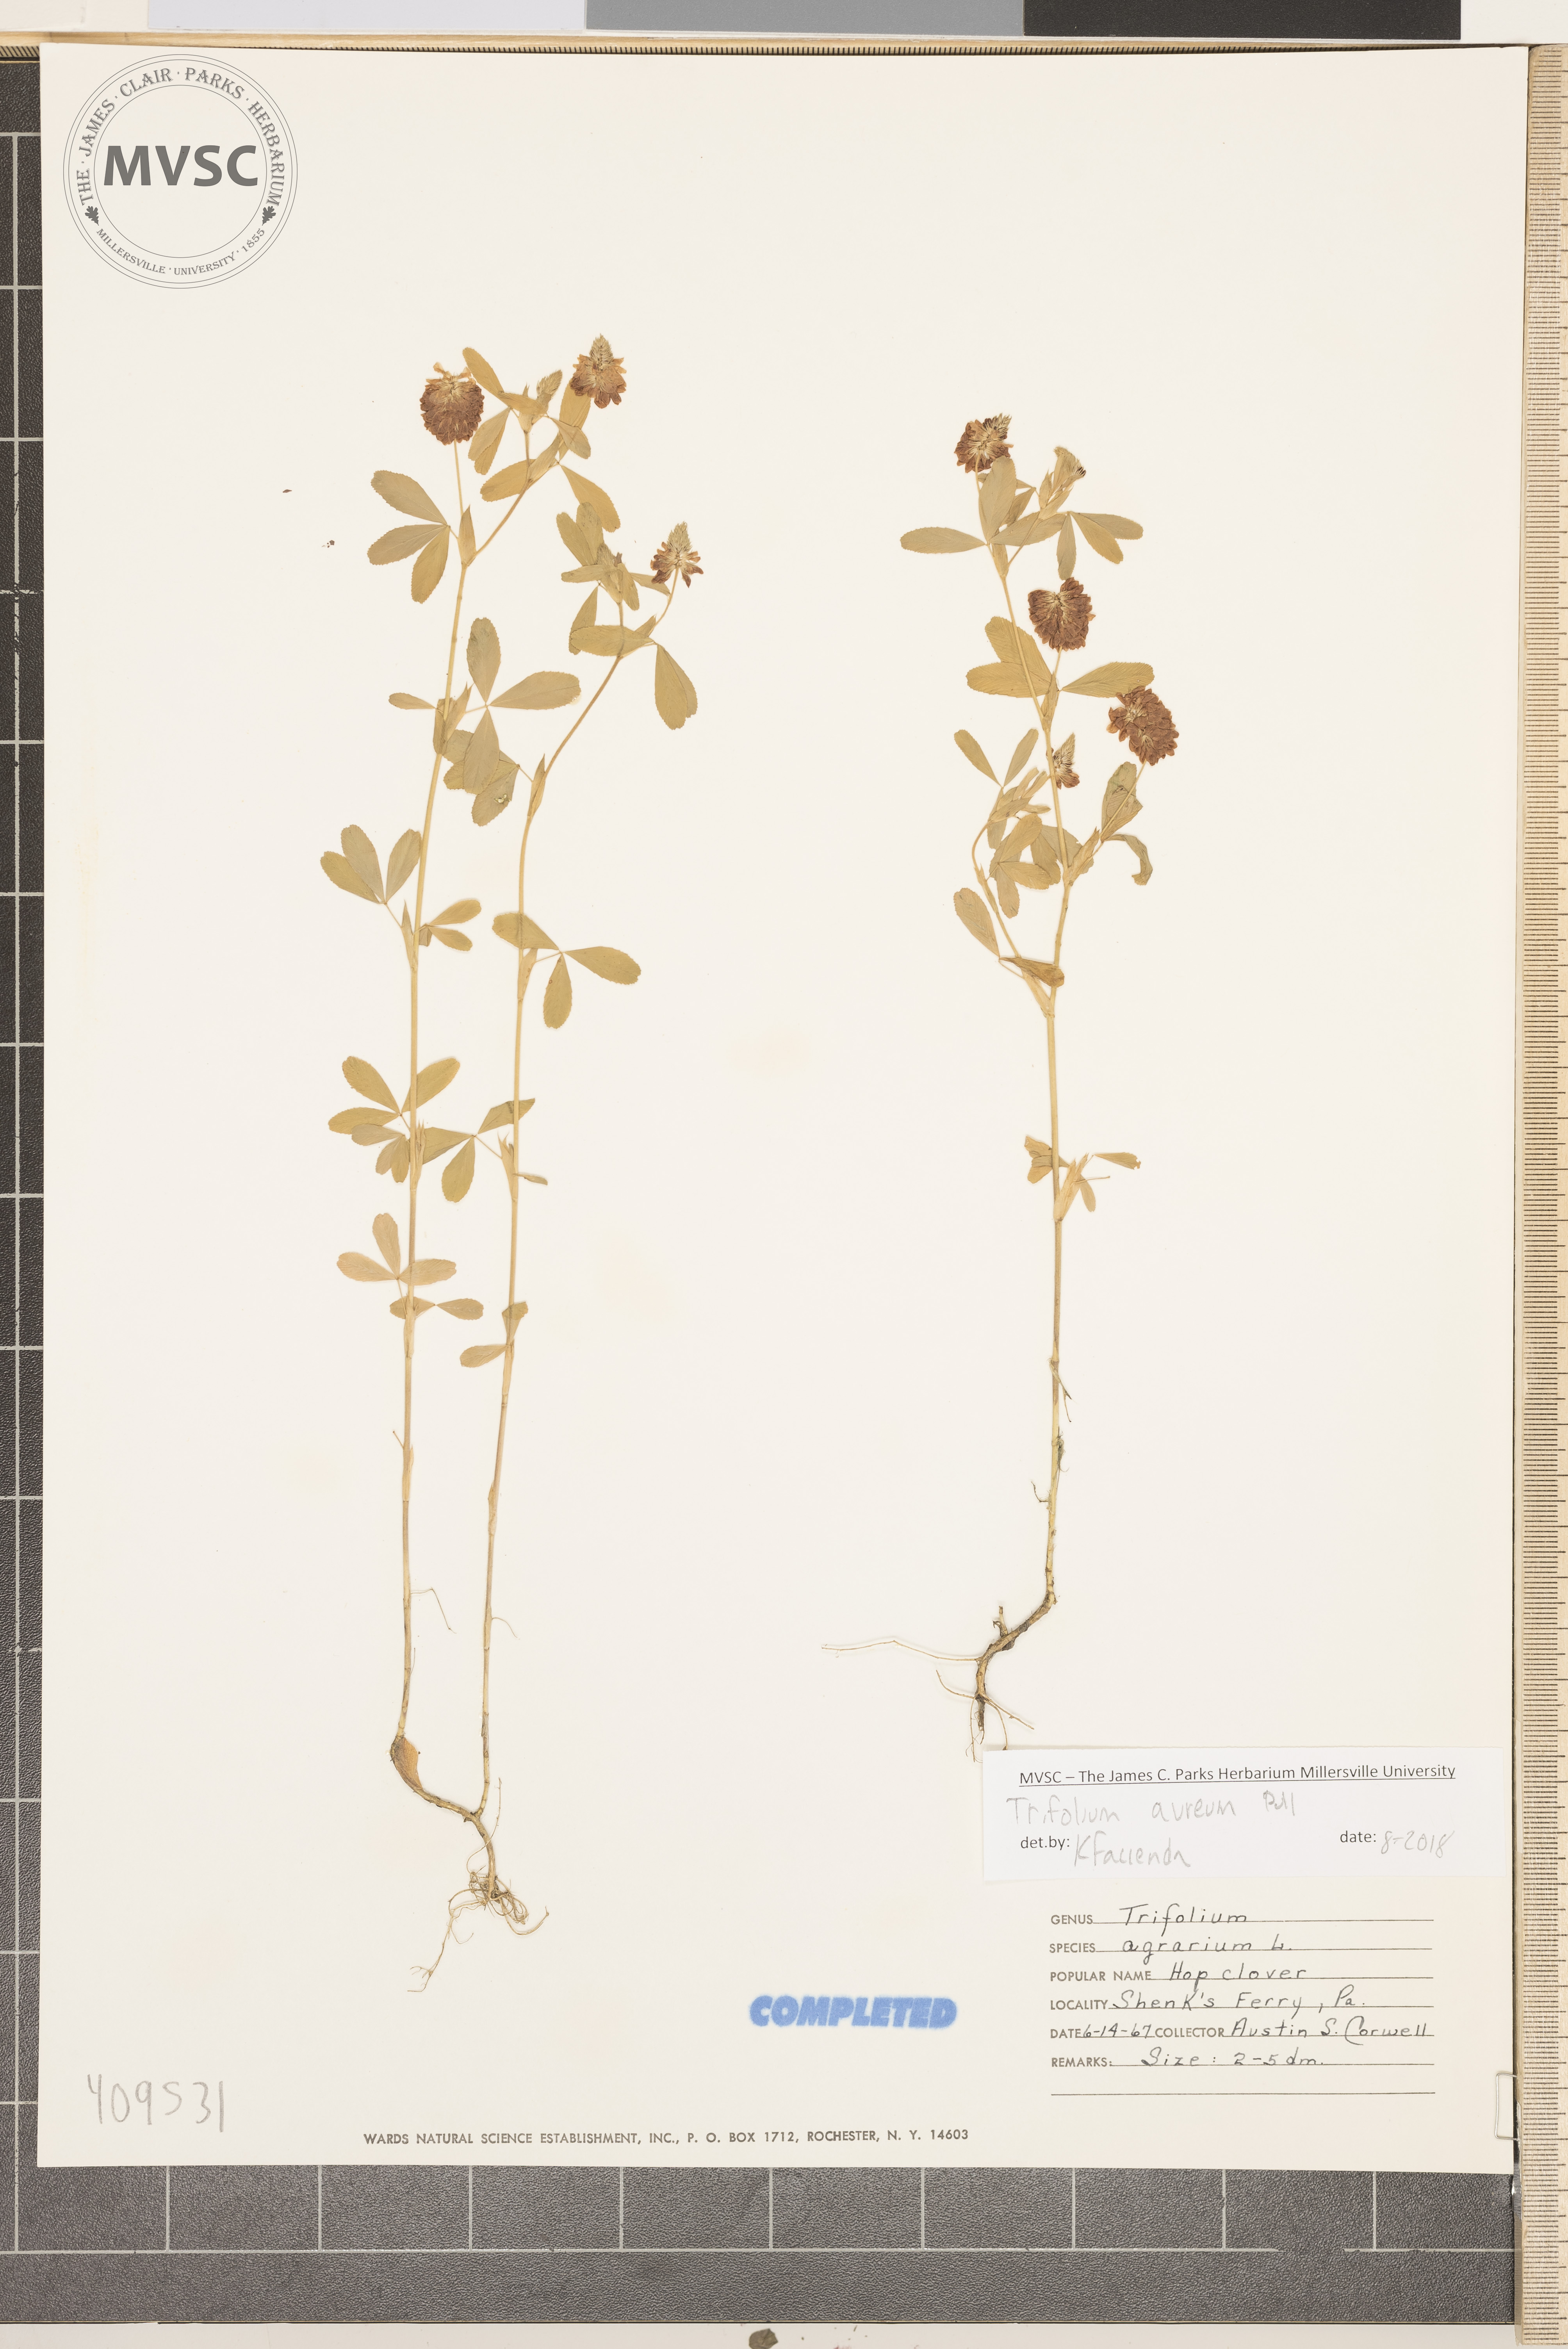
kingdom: Plantae
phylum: Tracheophyta
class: Magnoliopsida
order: Fabales
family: Fabaceae
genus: Trifolium
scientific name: Trifolium aureum
